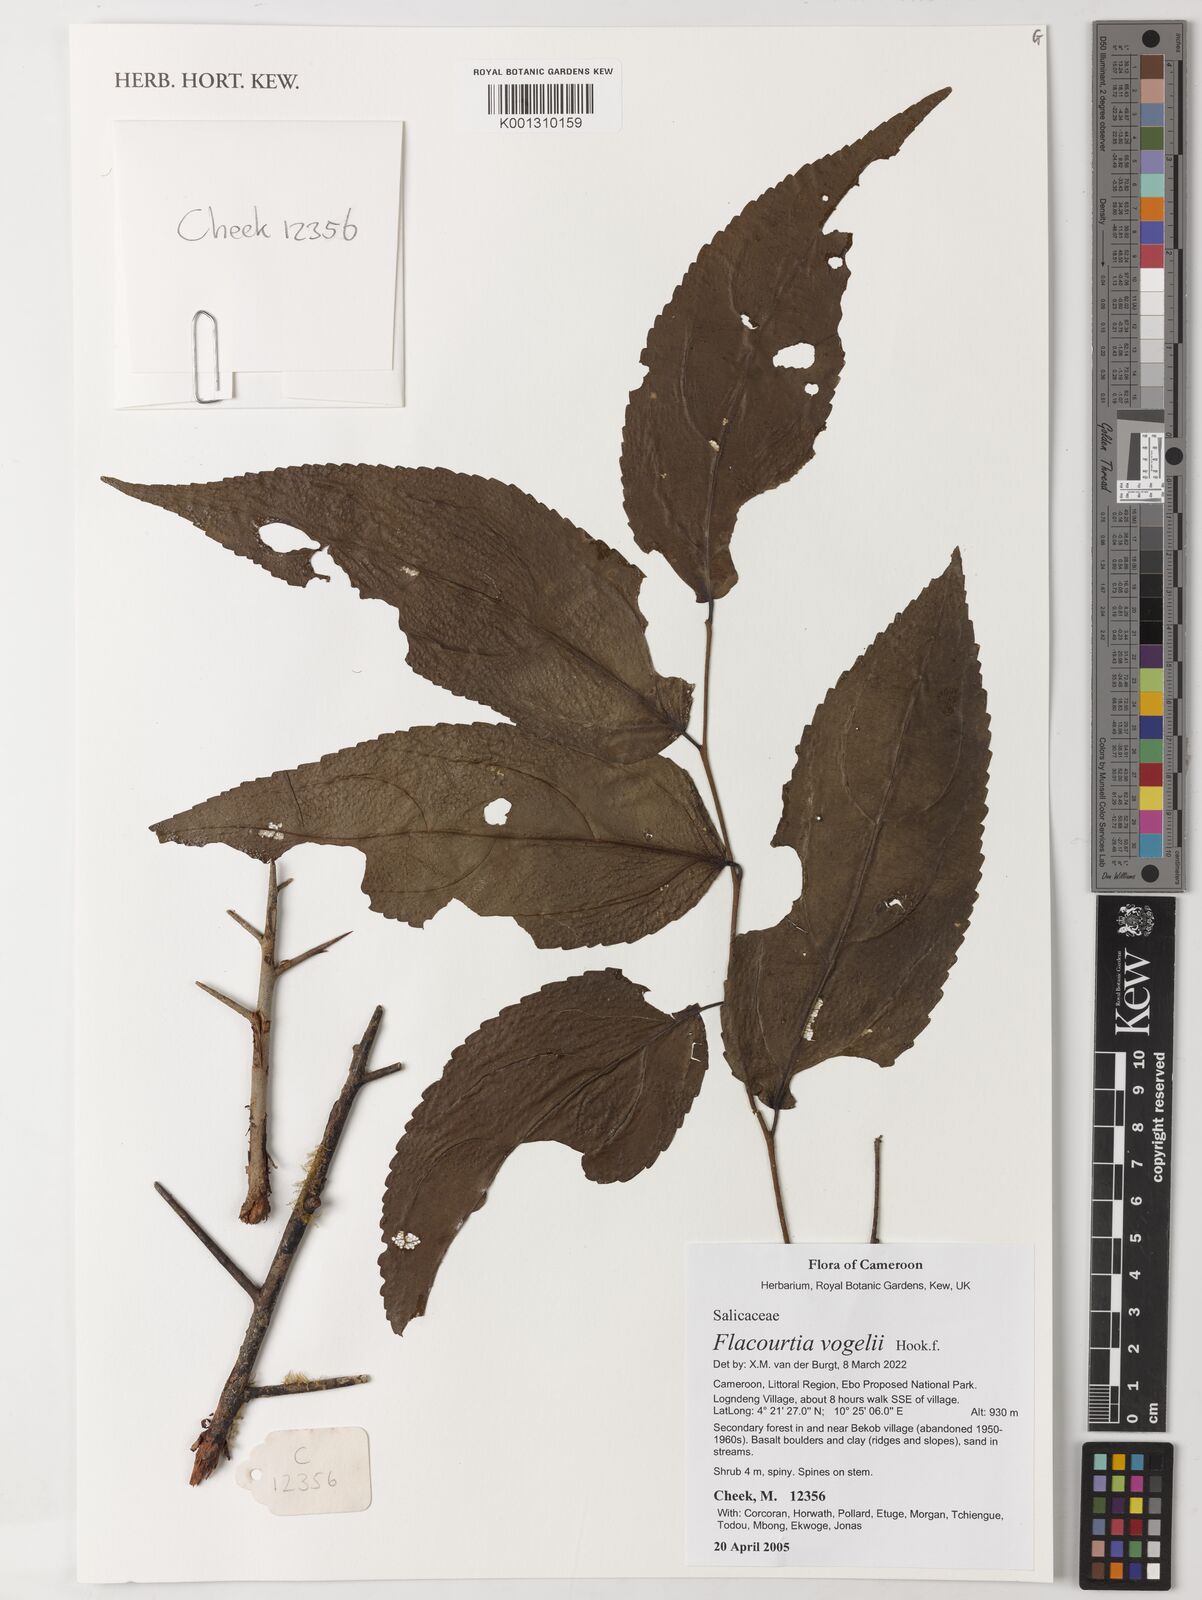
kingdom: Plantae
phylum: Tracheophyta
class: Magnoliopsida
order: Malpighiales
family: Salicaceae
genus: Flacourtia
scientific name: Flacourtia vogelii
